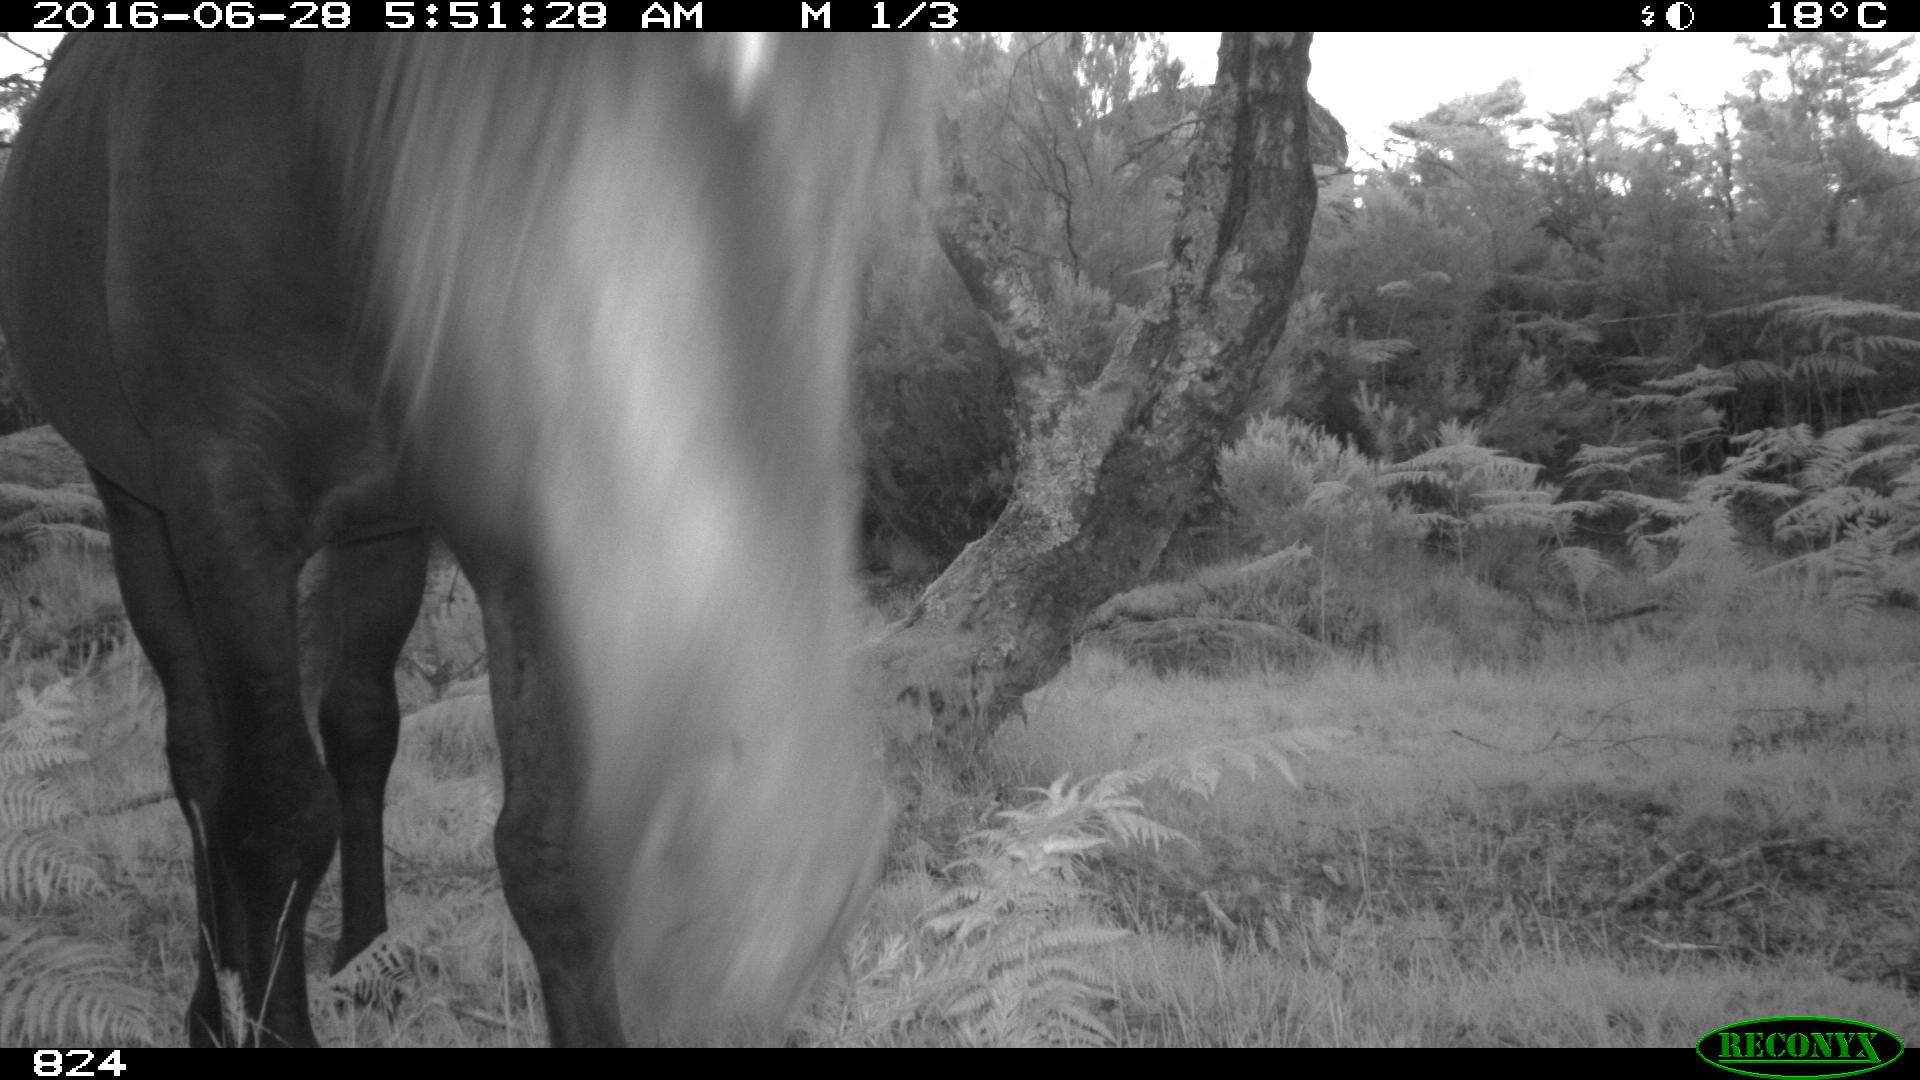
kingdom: Animalia
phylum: Chordata
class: Mammalia
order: Perissodactyla
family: Equidae
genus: Equus
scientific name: Equus caballus
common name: Horse
